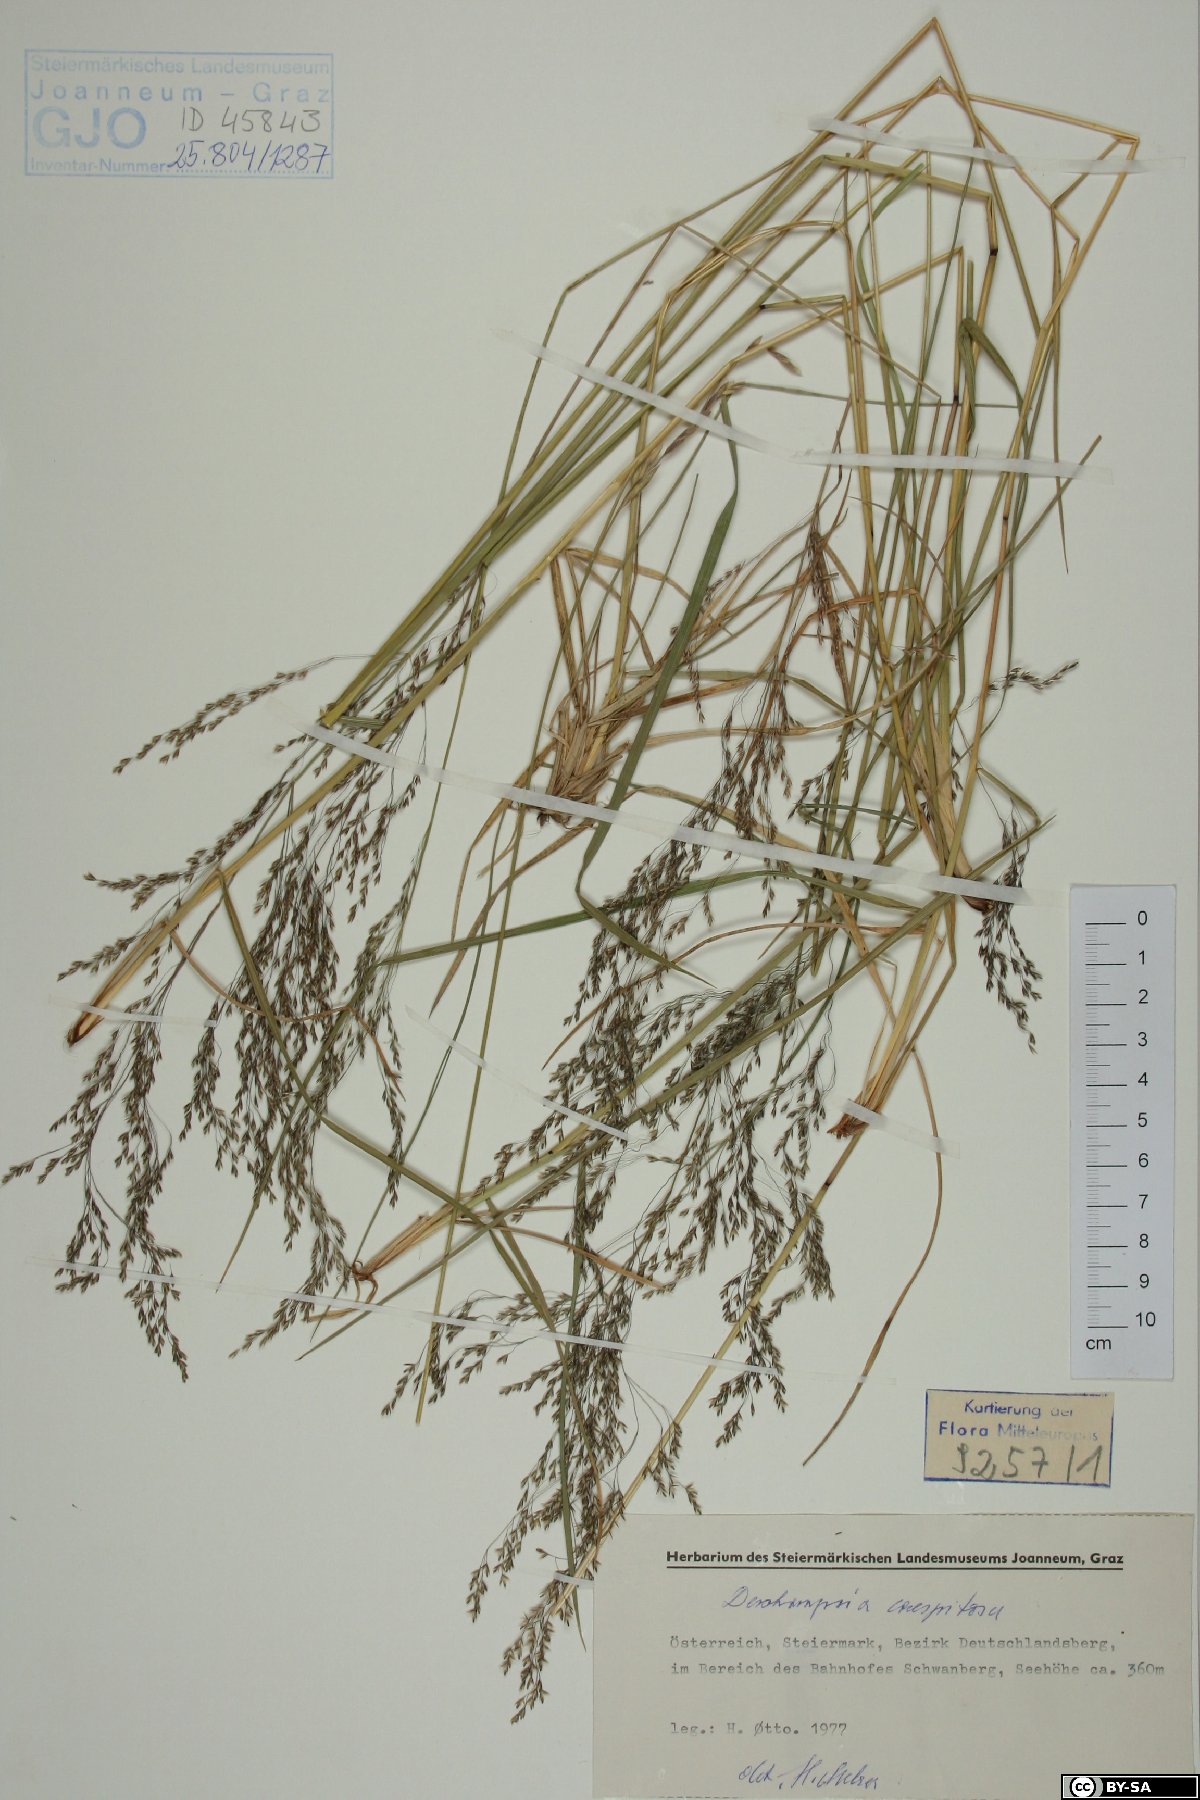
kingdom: Plantae
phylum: Tracheophyta
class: Liliopsida
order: Poales
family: Poaceae
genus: Deschampsia
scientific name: Deschampsia cespitosa
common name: Tufted hair-grass
